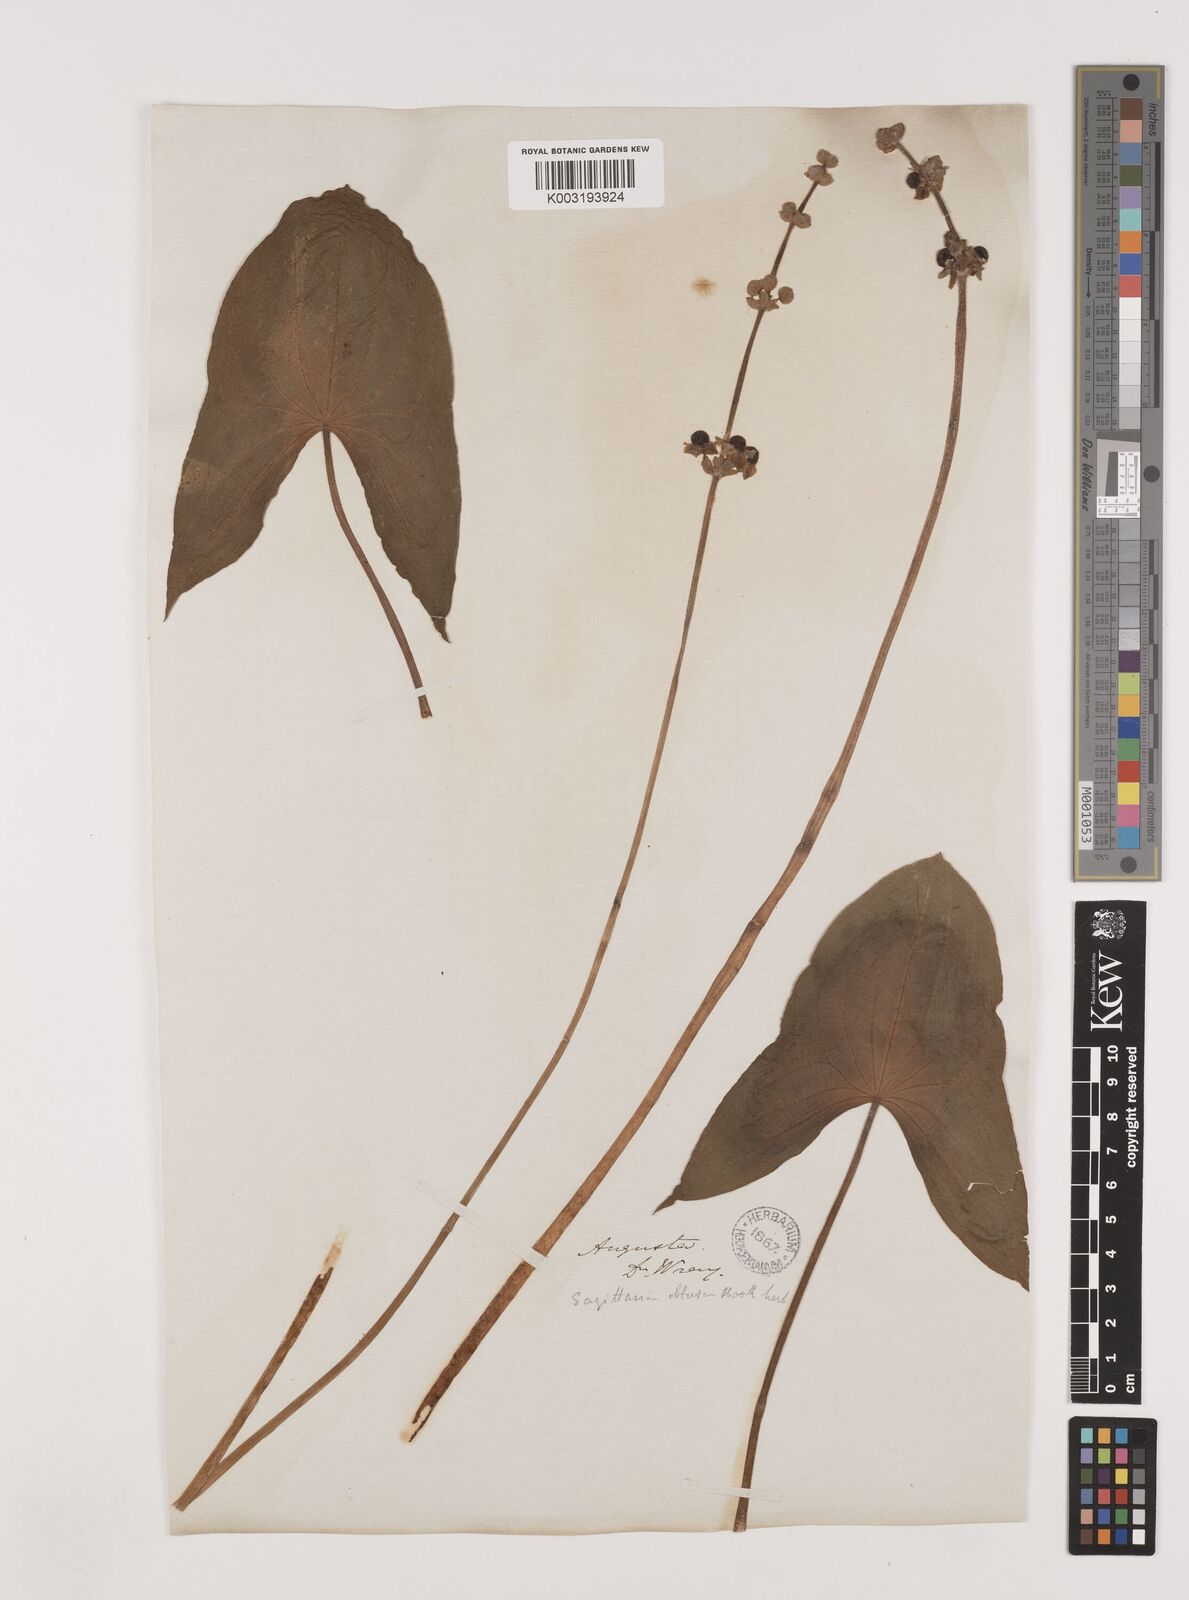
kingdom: Plantae
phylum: Tracheophyta
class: Liliopsida
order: Alismatales
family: Alismataceae
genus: Sagittaria
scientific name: Sagittaria latifolia
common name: Duck-potato
